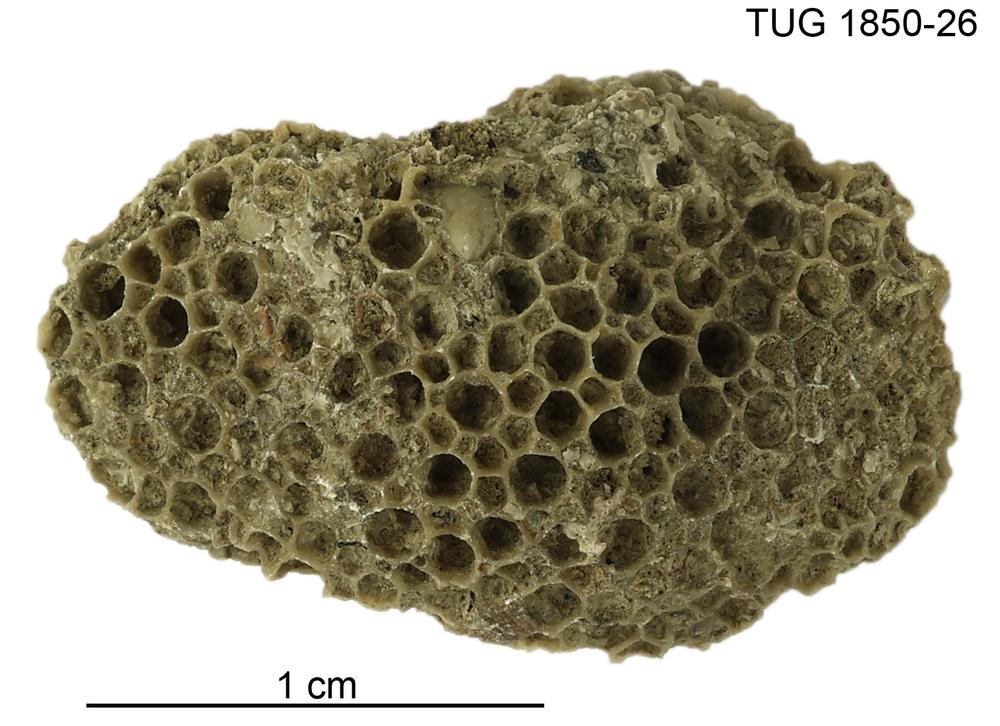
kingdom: Animalia
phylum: Cnidaria
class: Anthozoa
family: Favositidae
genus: Favosites
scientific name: Favosites
